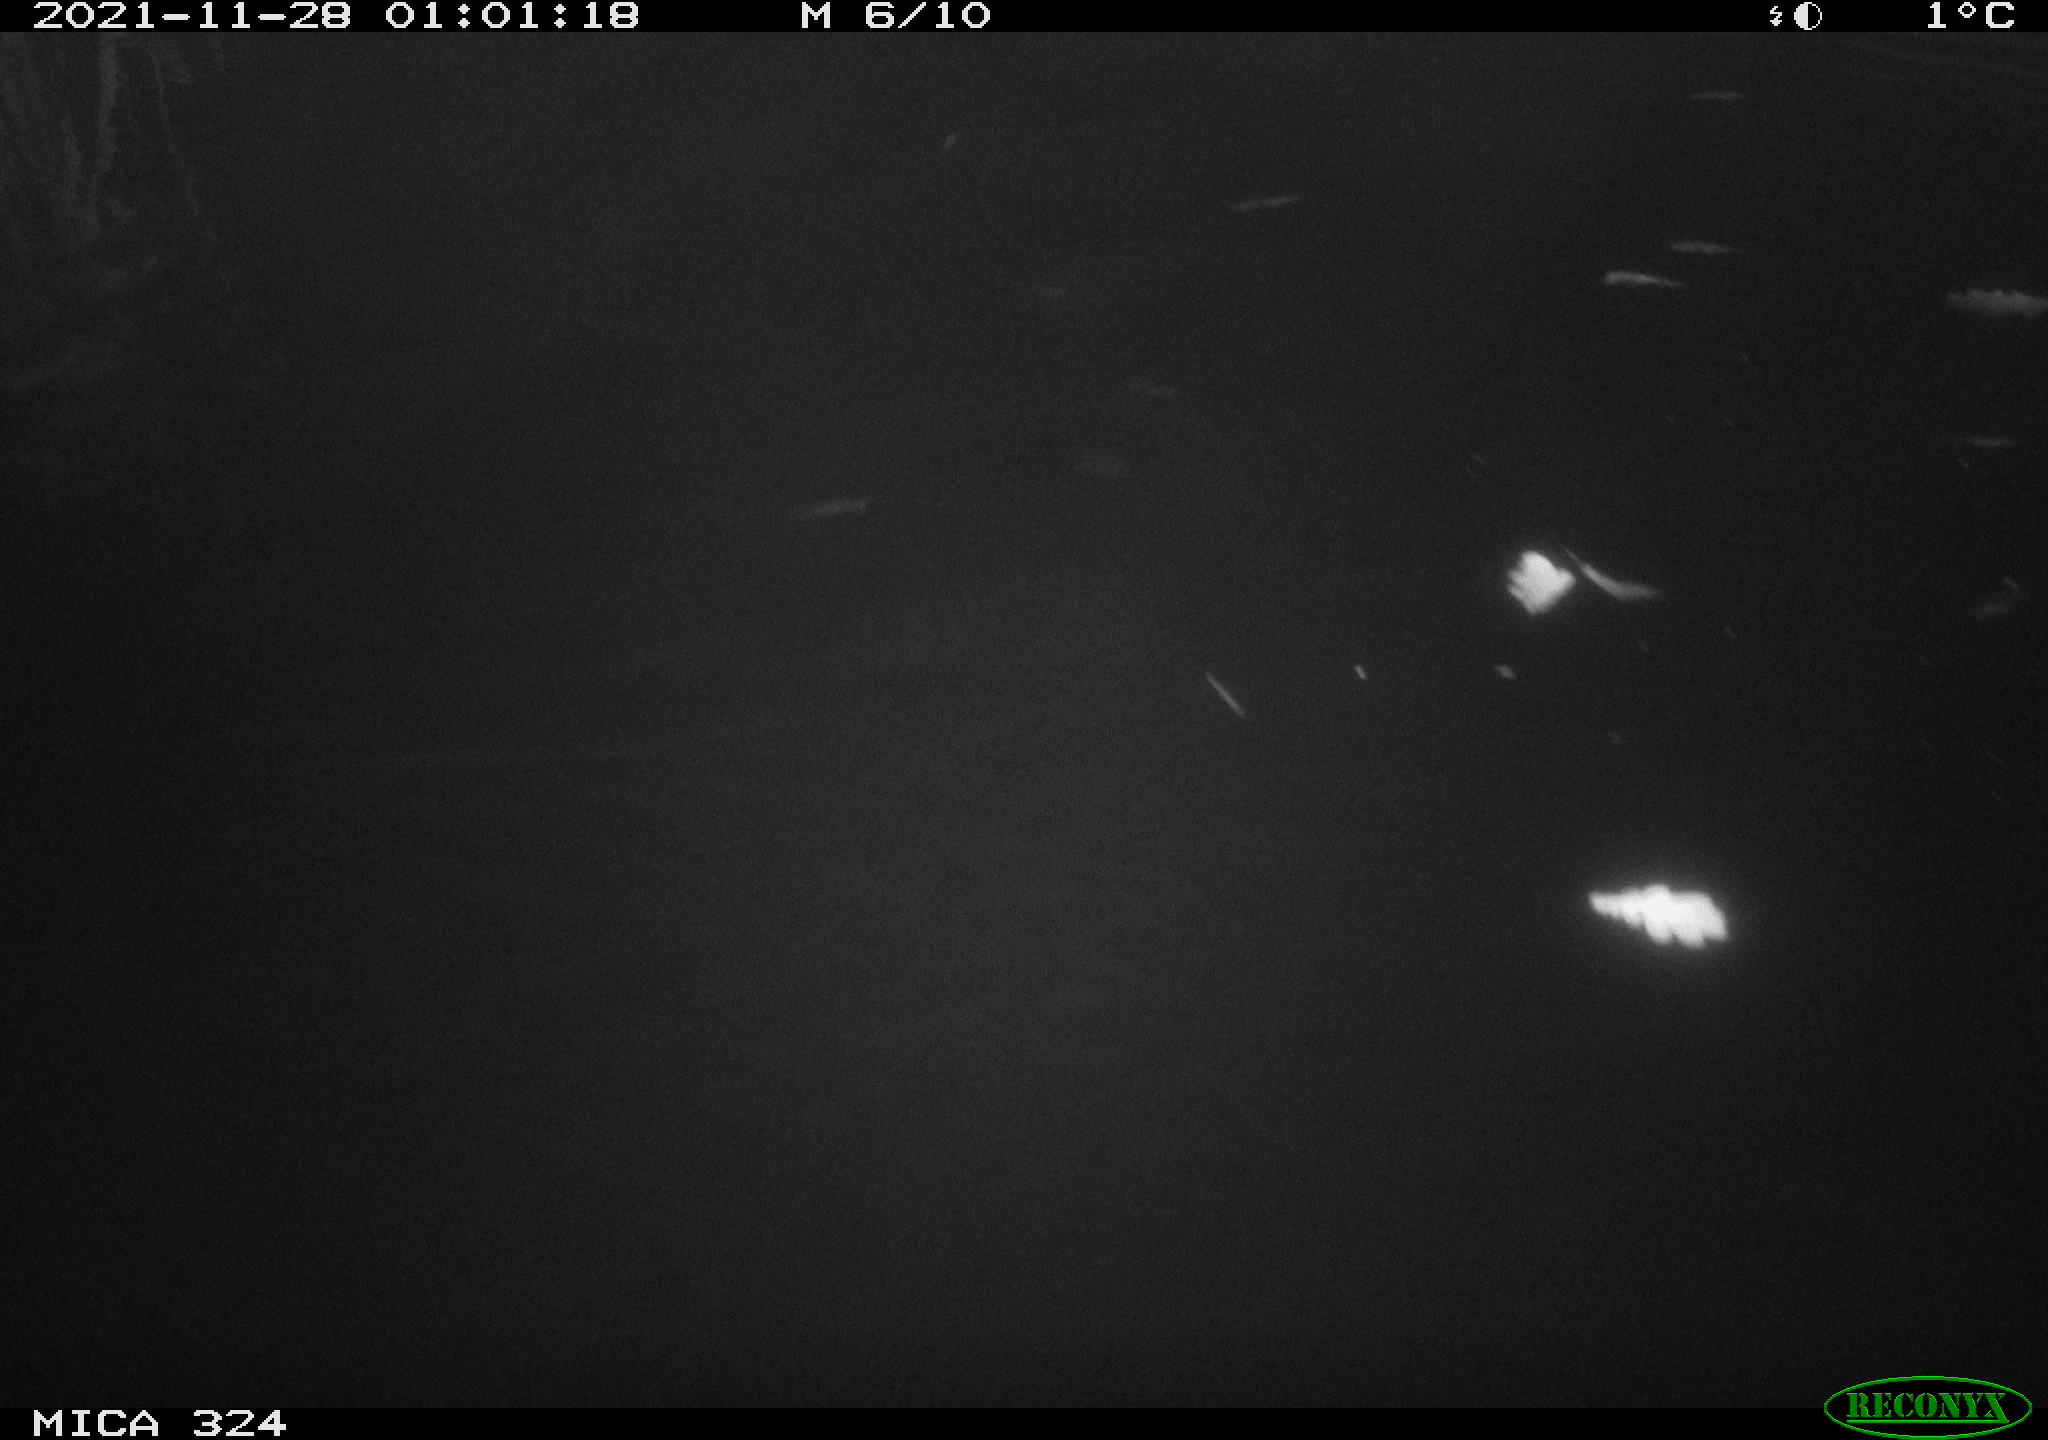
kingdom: Animalia
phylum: Chordata
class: Mammalia
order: Rodentia
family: Cricetidae
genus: Ondatra
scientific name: Ondatra zibethicus
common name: Muskrat
